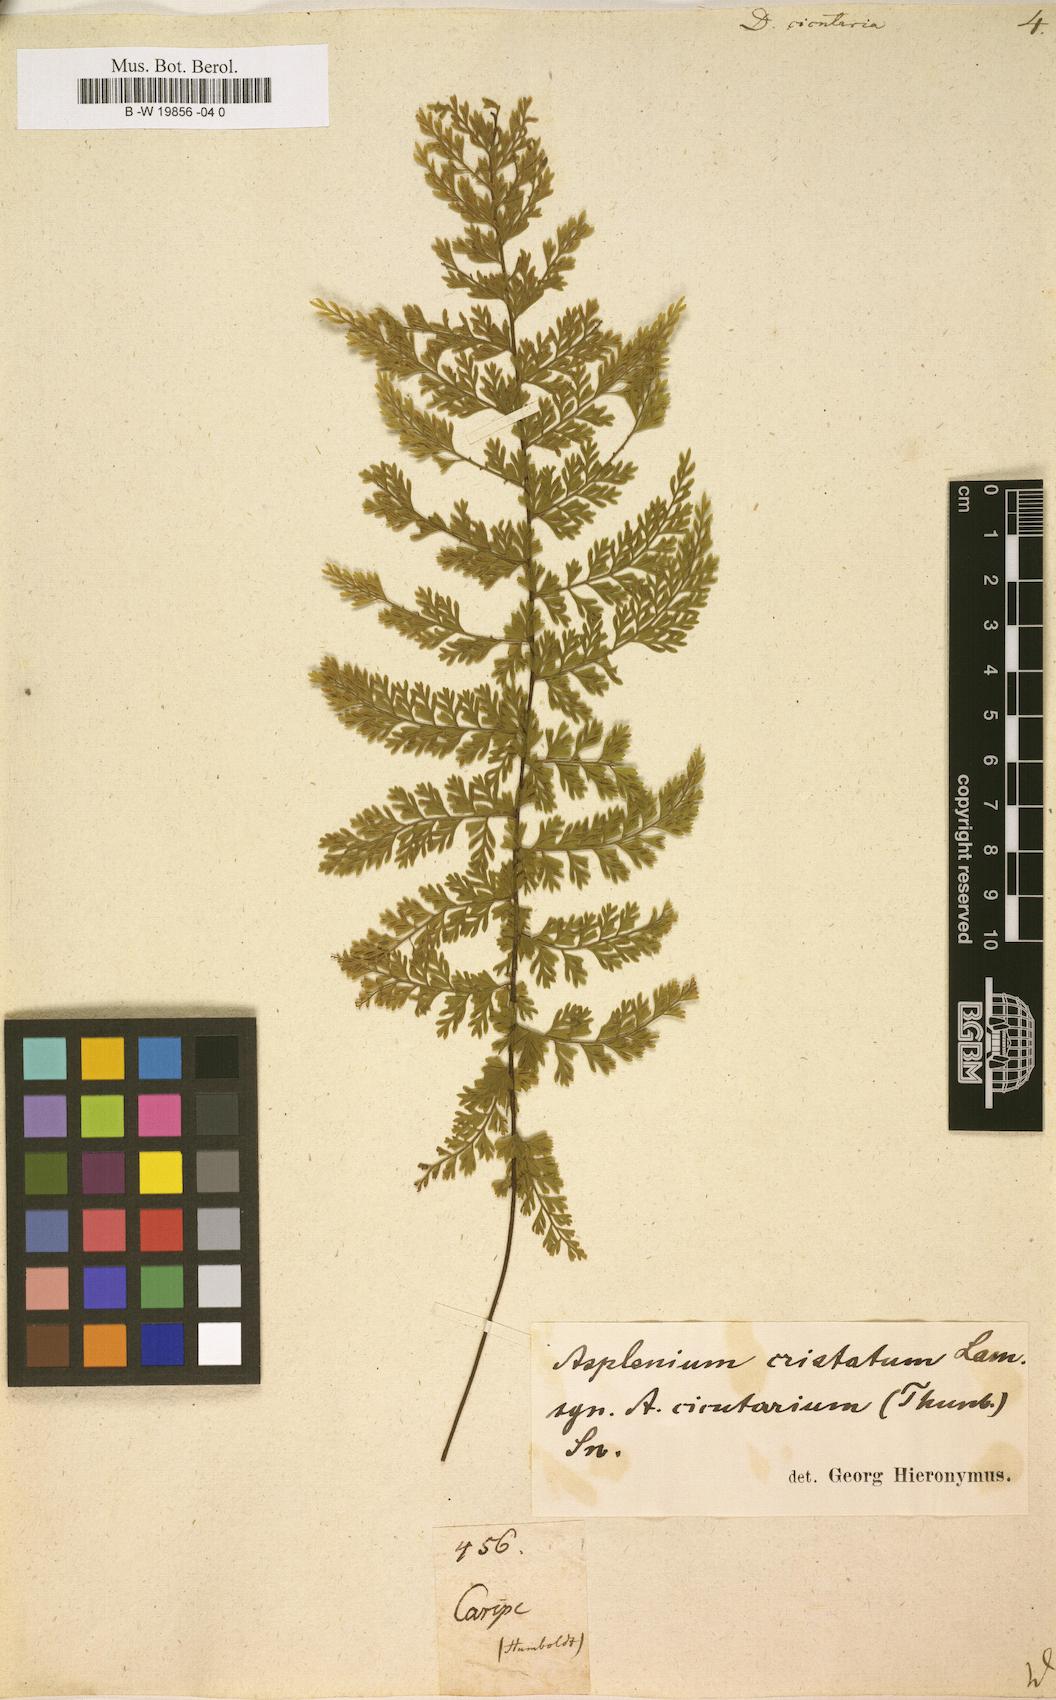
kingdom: Plantae
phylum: Tracheophyta
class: Polypodiopsida
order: Polypodiales
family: Aspleniaceae
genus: Asplenium
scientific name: Asplenium cristatum
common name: Parsley spleenwort
